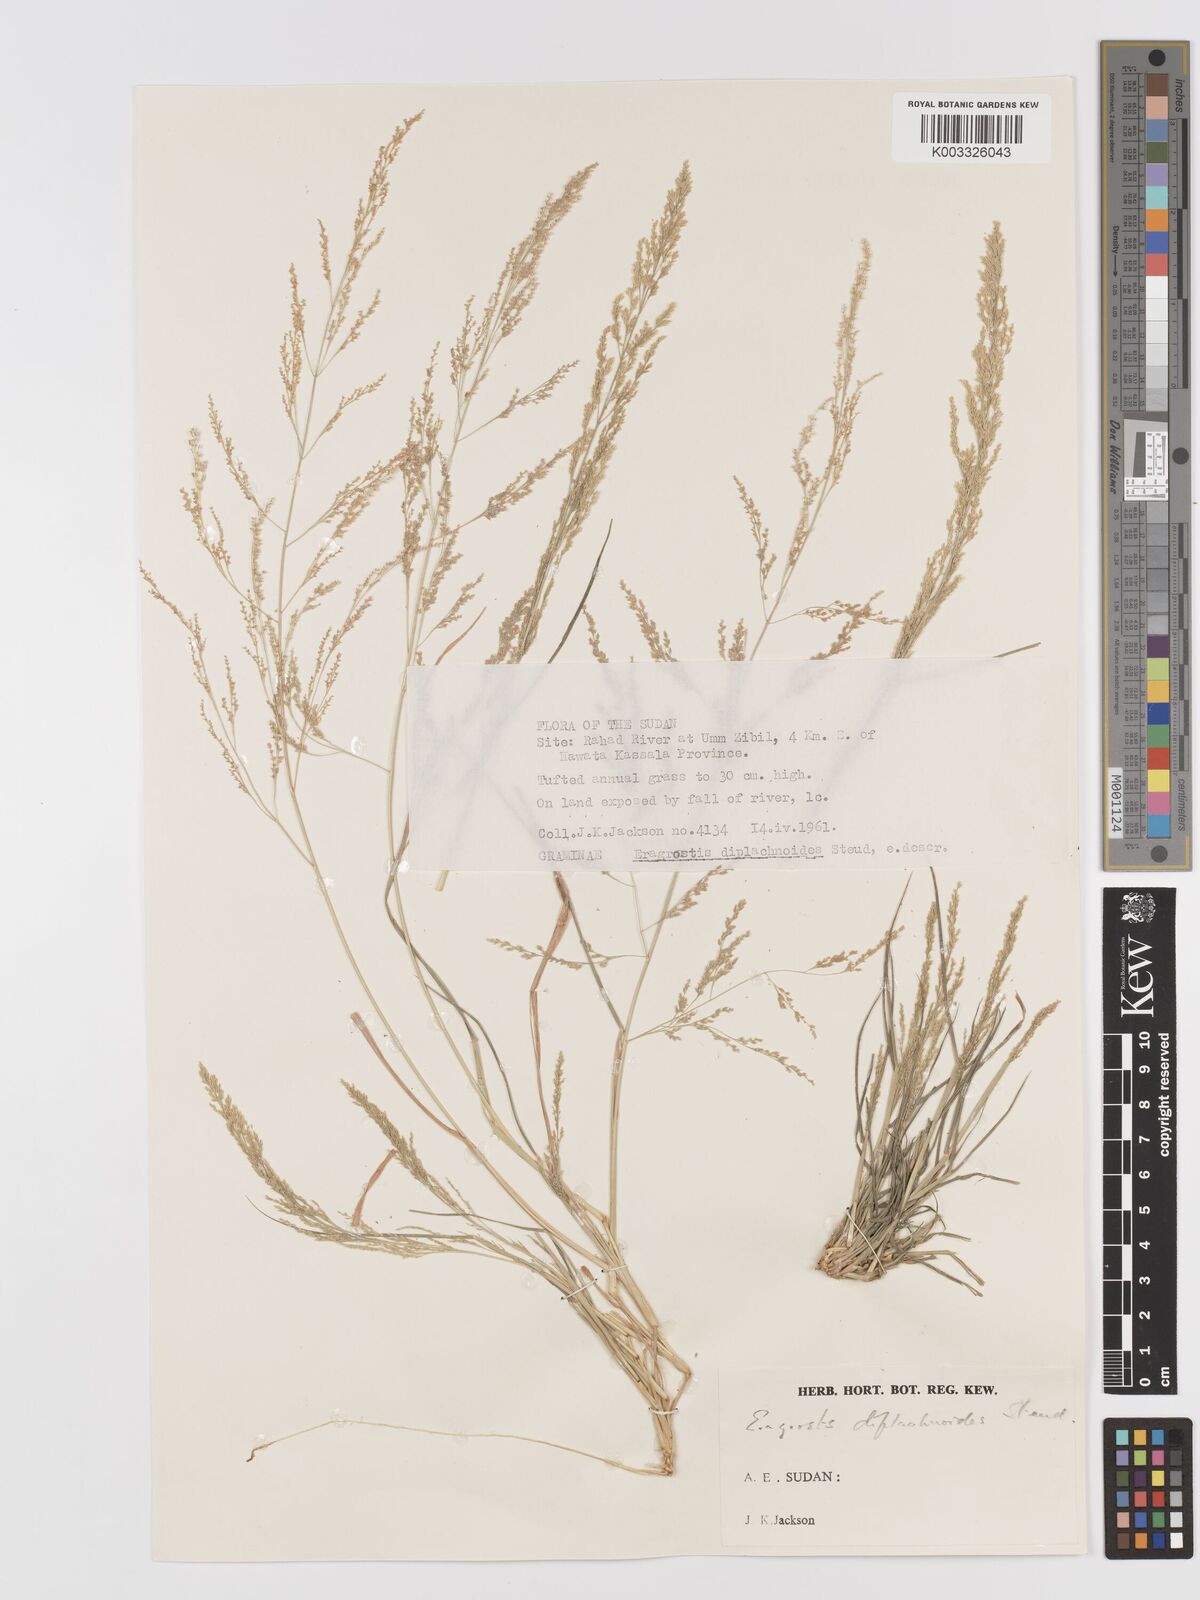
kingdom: Plantae
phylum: Tracheophyta
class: Liliopsida
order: Poales
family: Poaceae
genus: Eragrostis
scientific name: Eragrostis japonica
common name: Pond lovegrass
